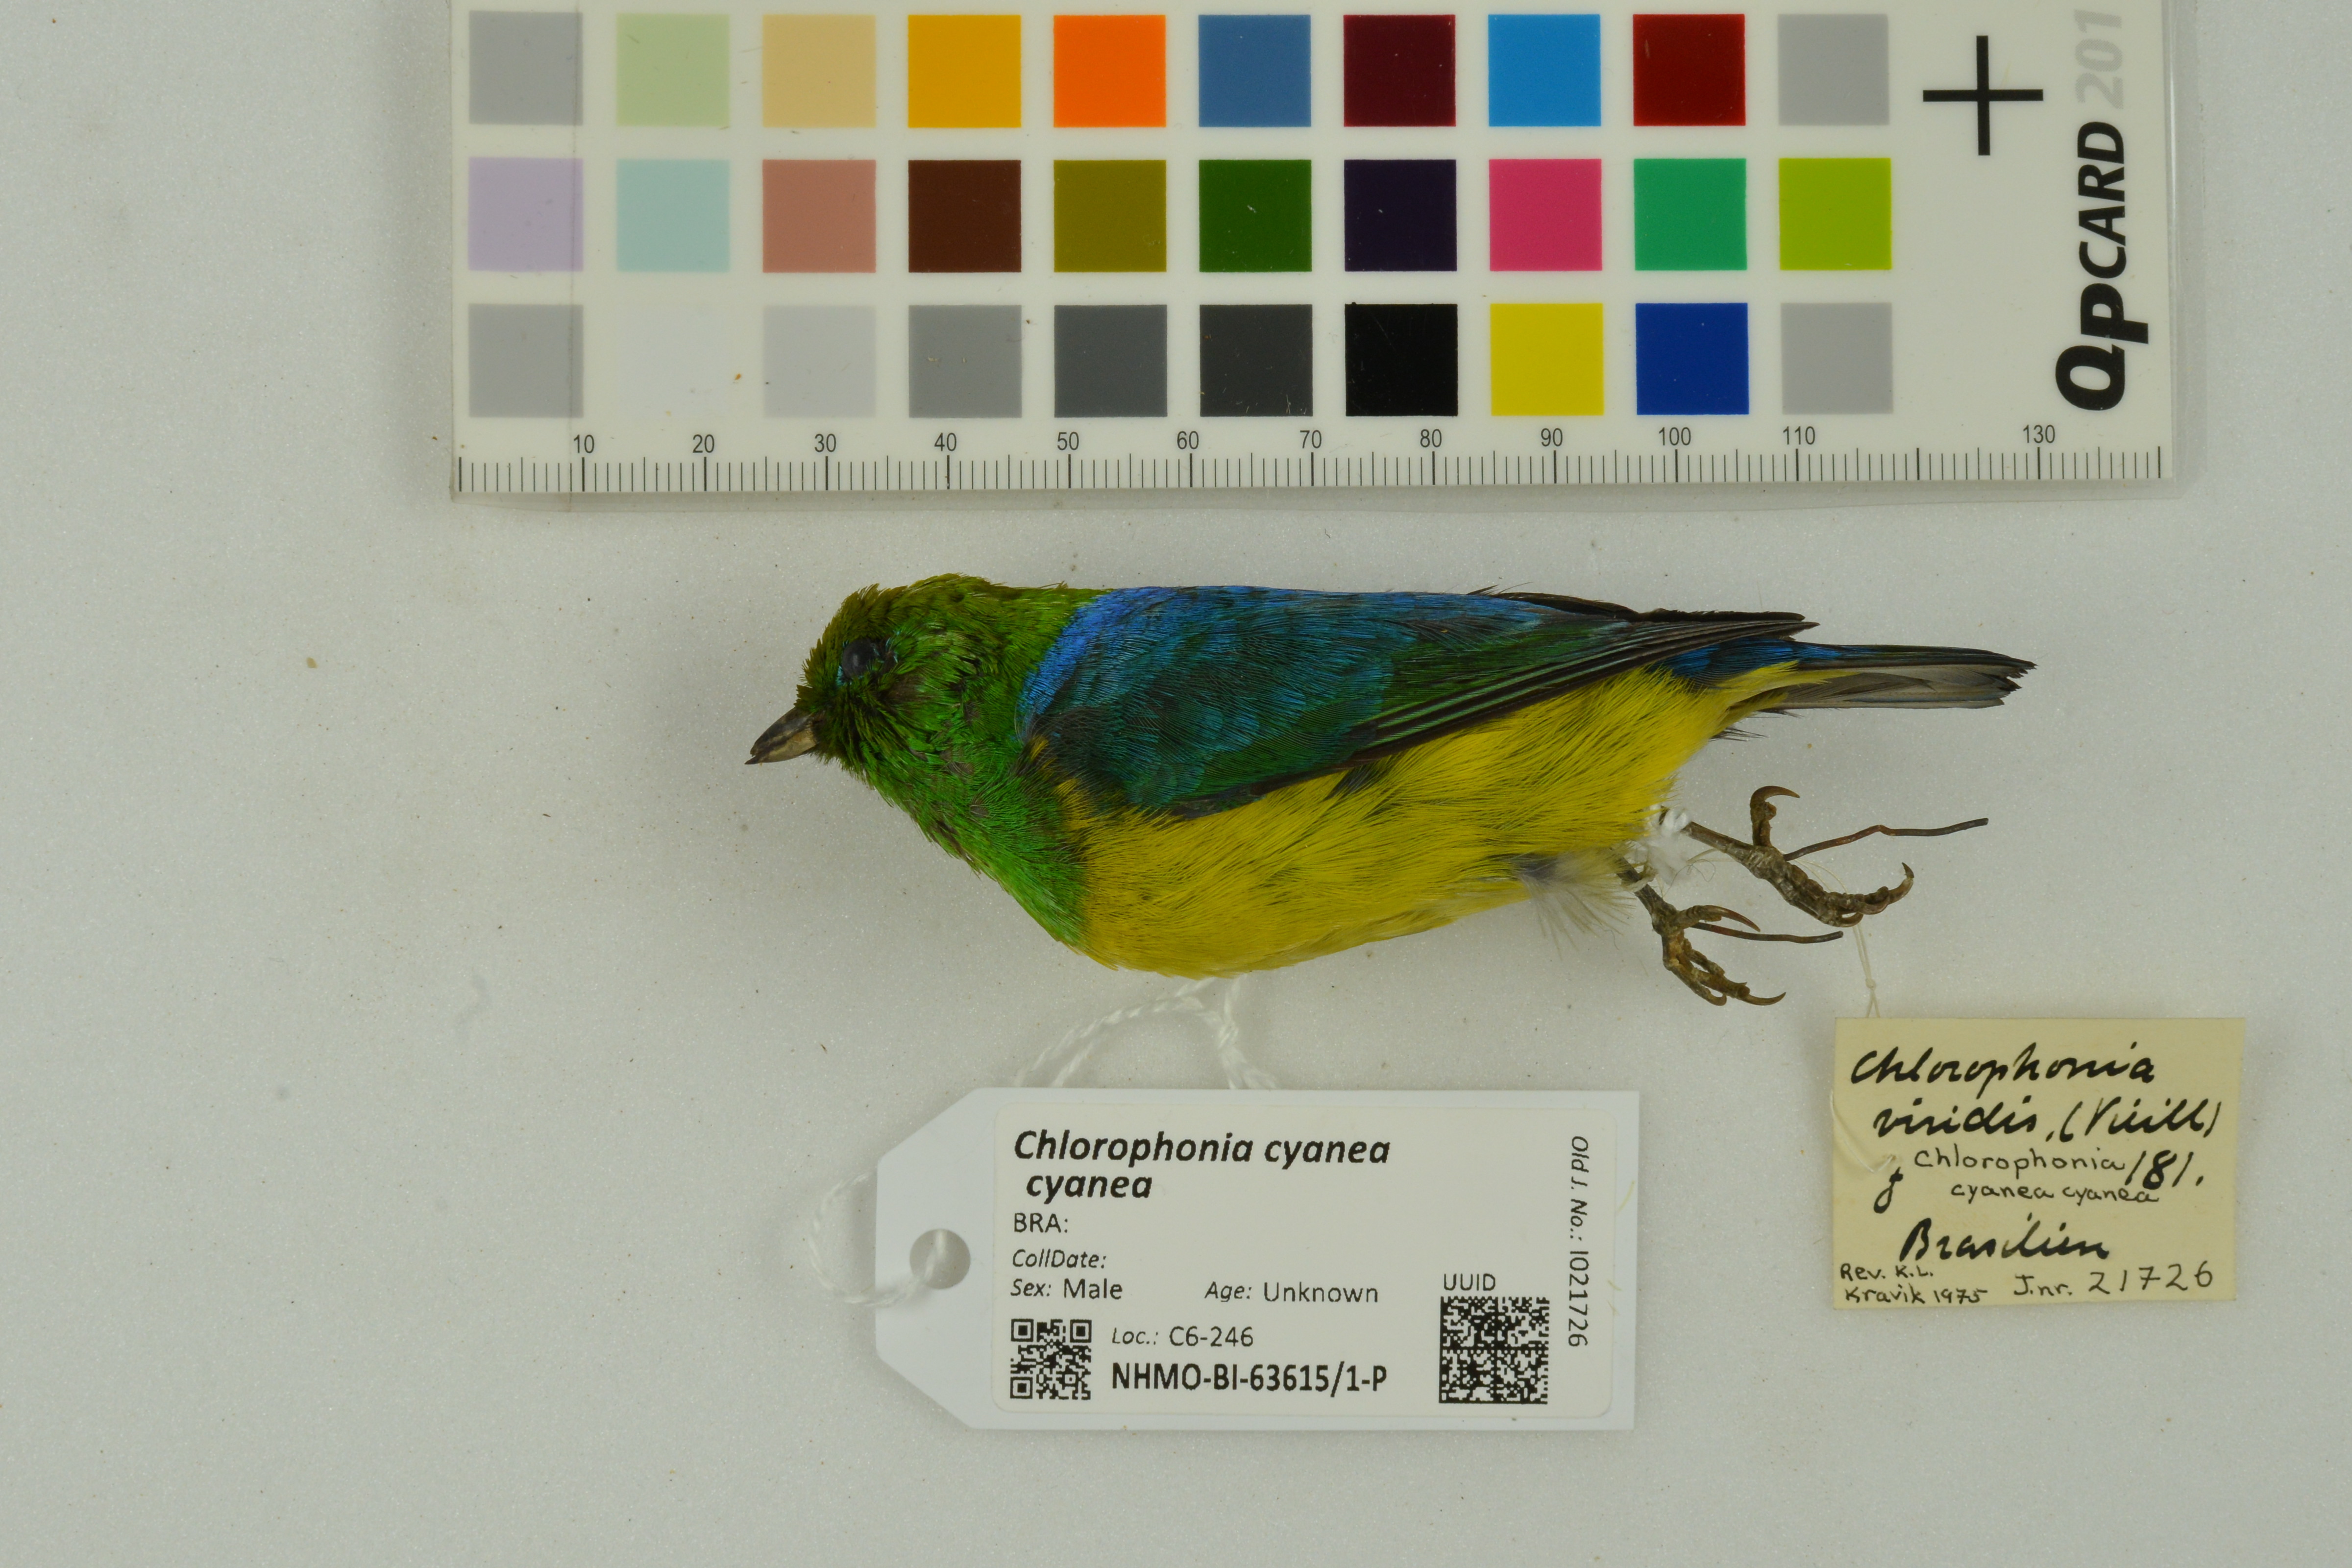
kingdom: Animalia
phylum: Chordata
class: Aves
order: Passeriformes
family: Fringillidae
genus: Chlorophonia
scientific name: Chlorophonia cyanea
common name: Blue-naped chlorophonia
